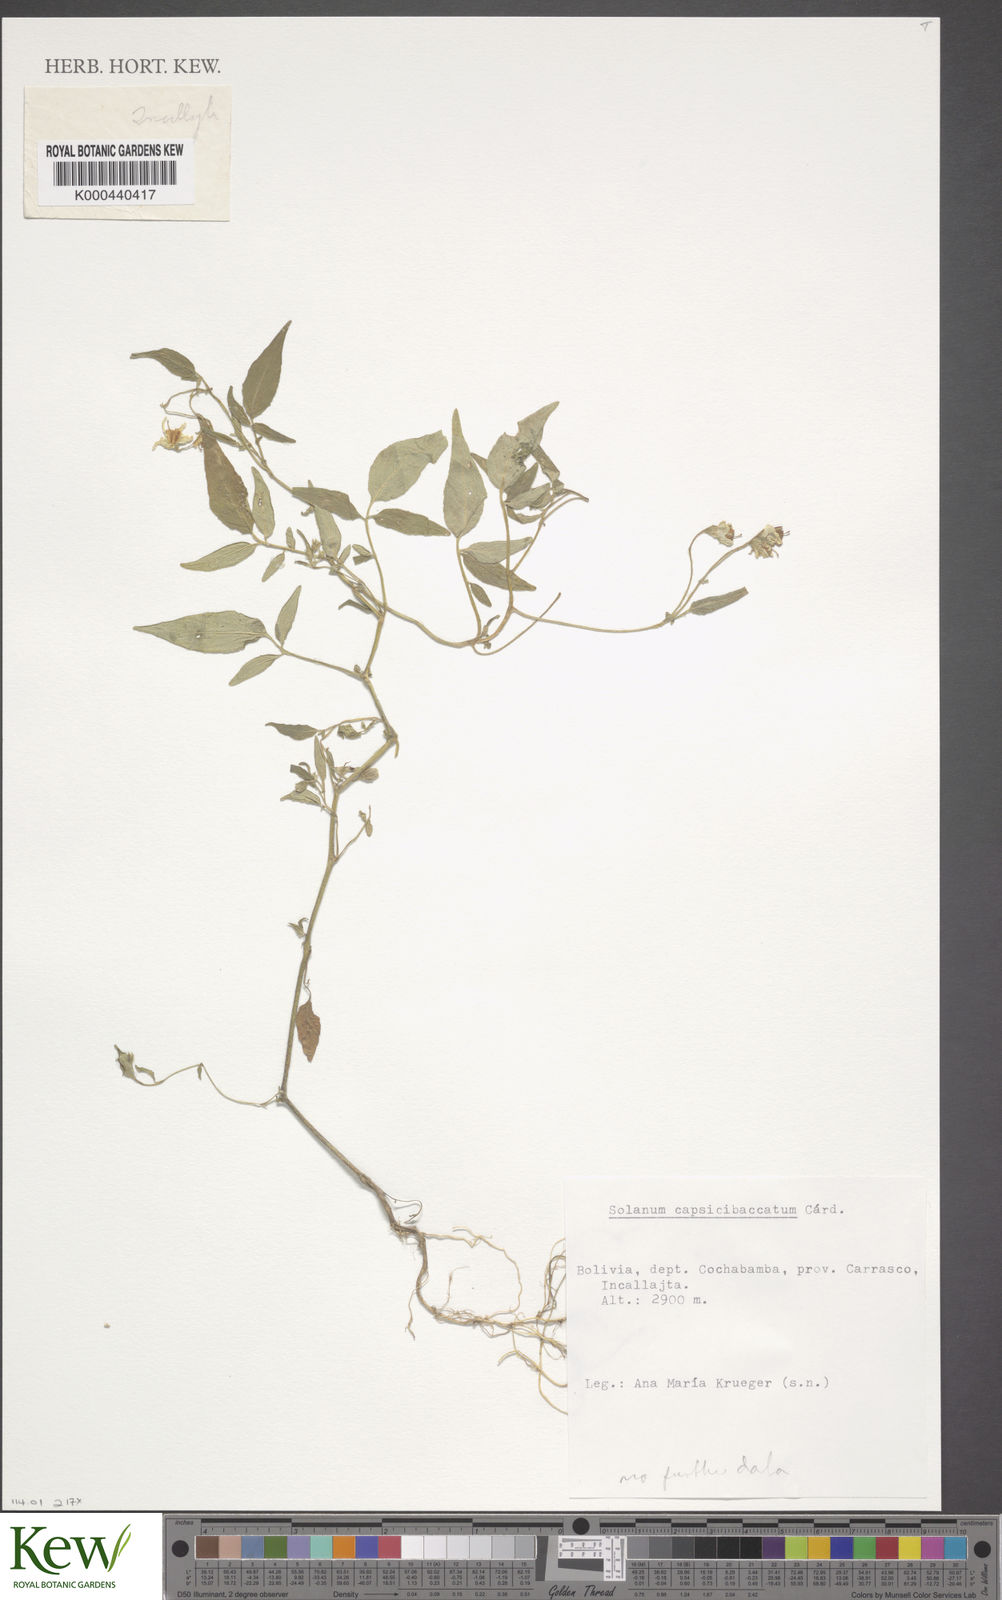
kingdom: Plantae
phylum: Tracheophyta
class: Magnoliopsida
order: Solanales
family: Solanaceae
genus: Solanum
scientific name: Solanum stipuloideum
